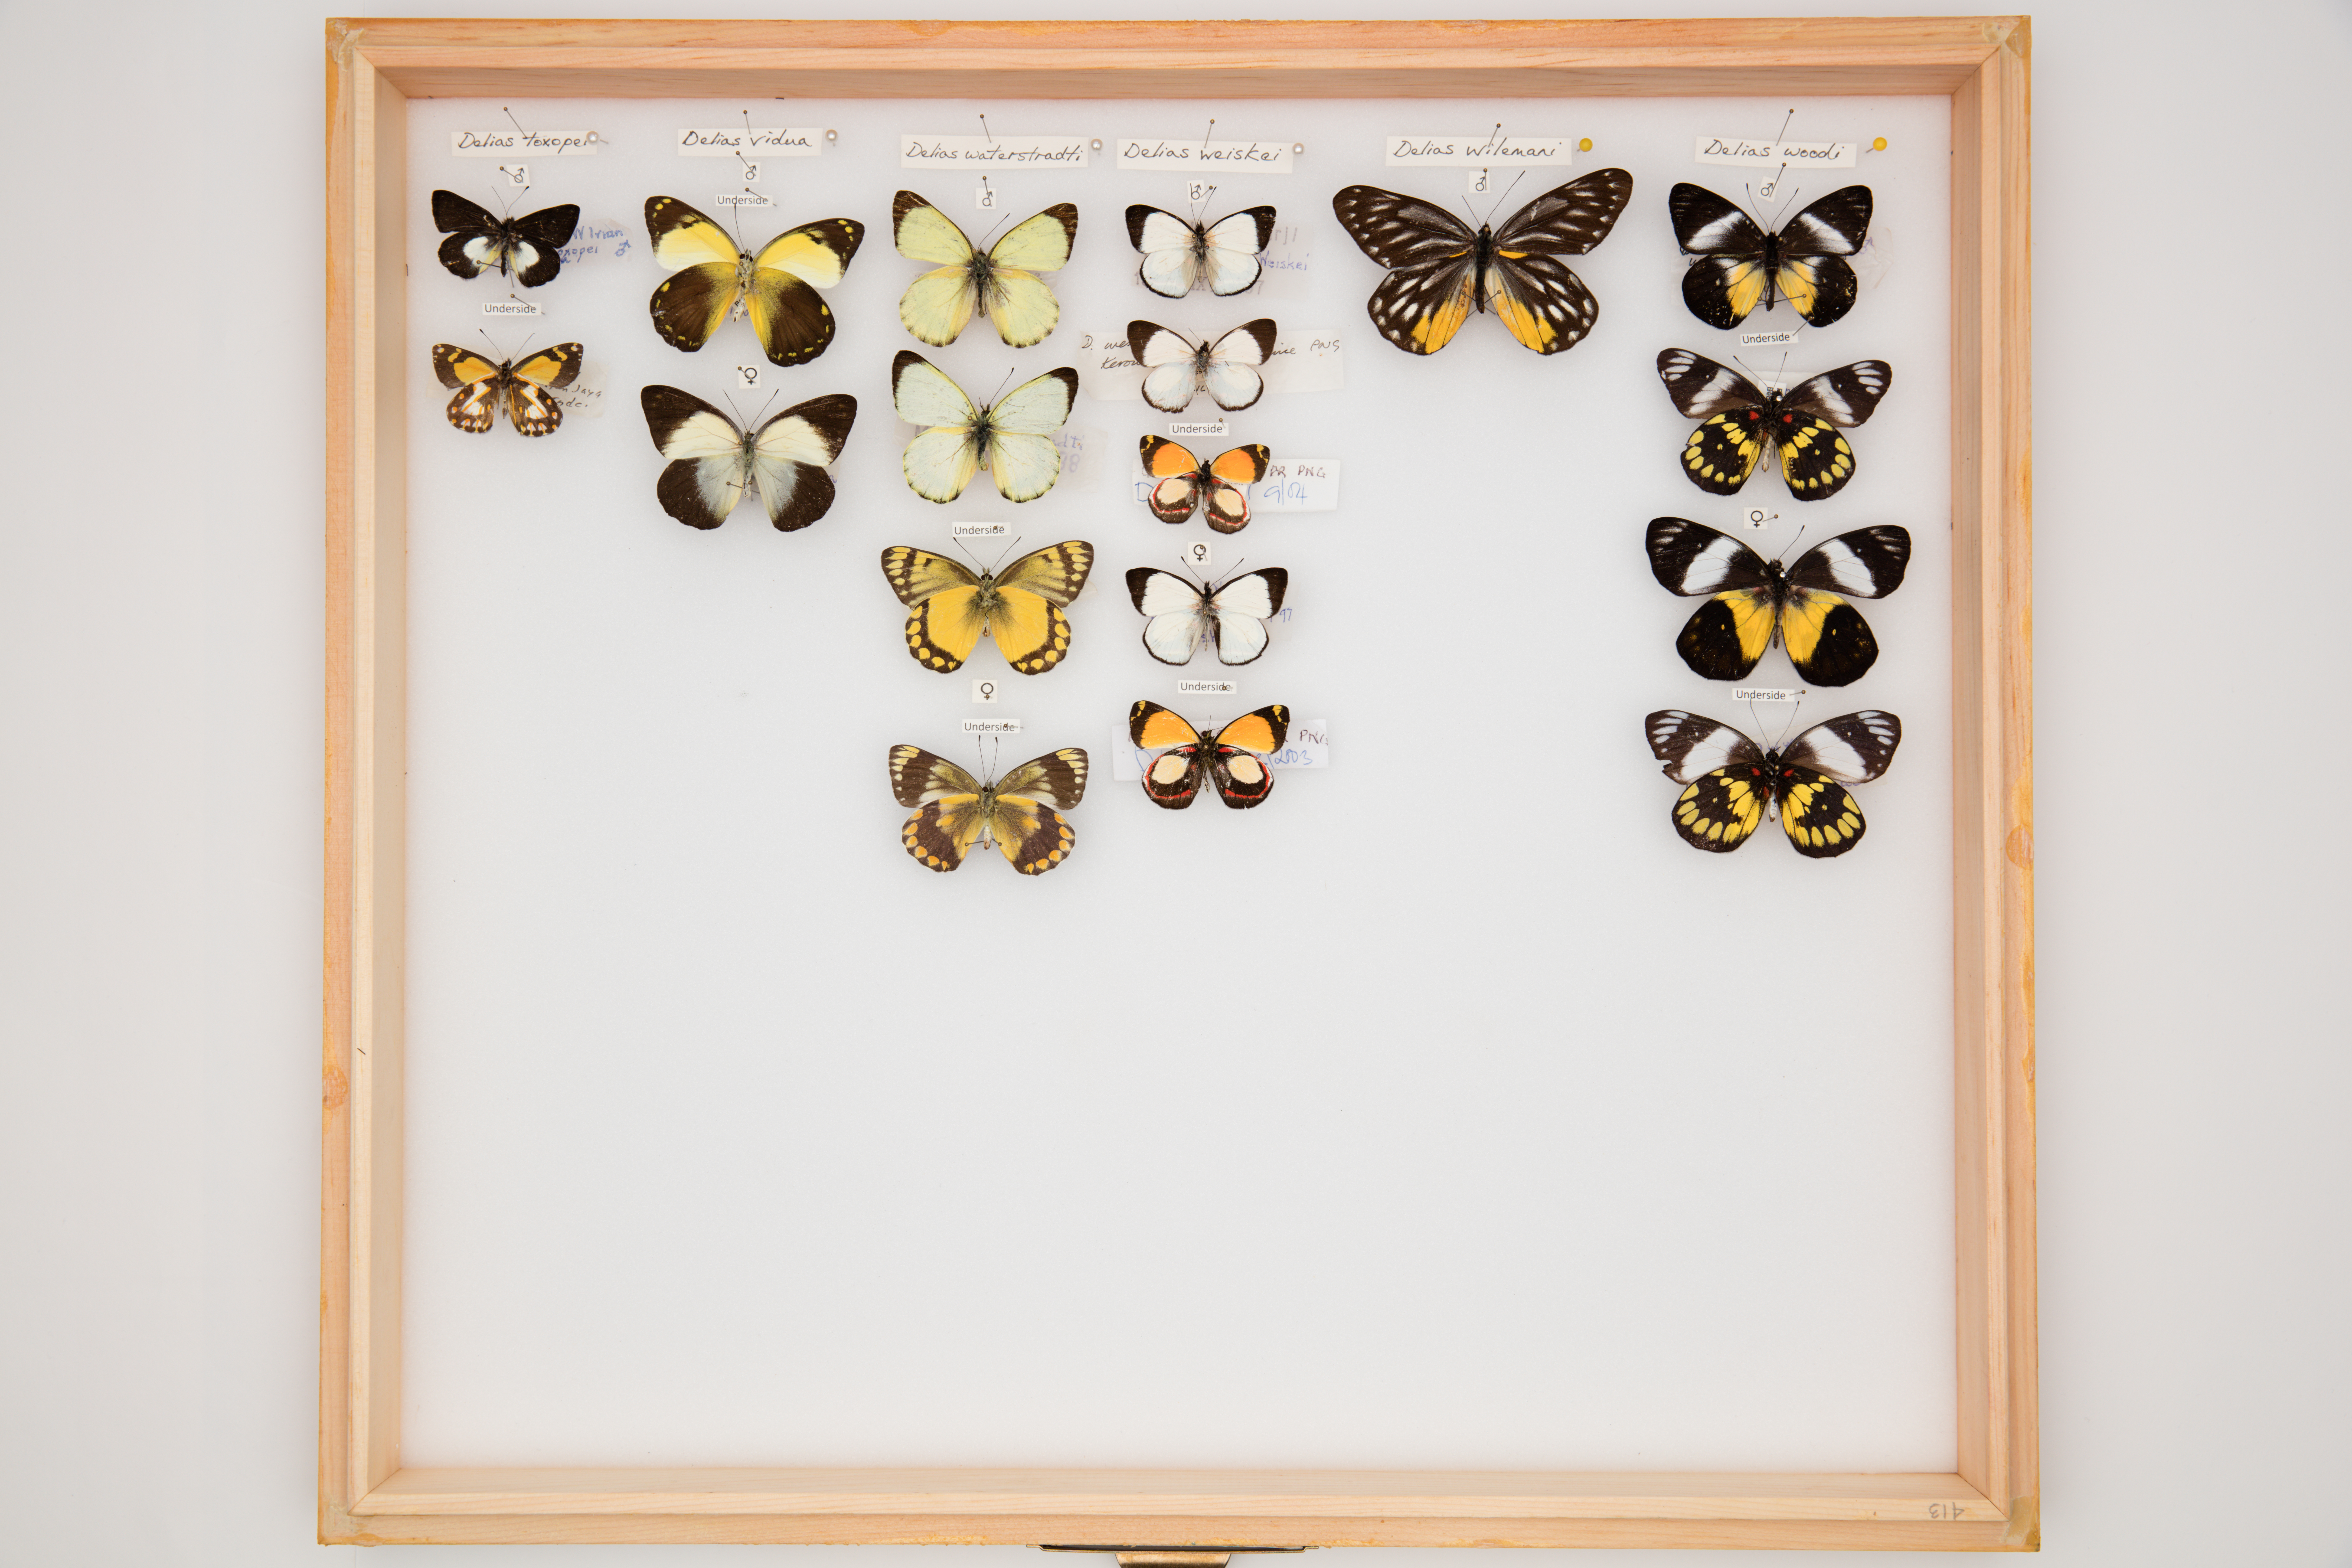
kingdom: Animalia
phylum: Arthropoda
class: Insecta
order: Lepidoptera
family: Pieridae
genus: Delias
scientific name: Delias woodi
